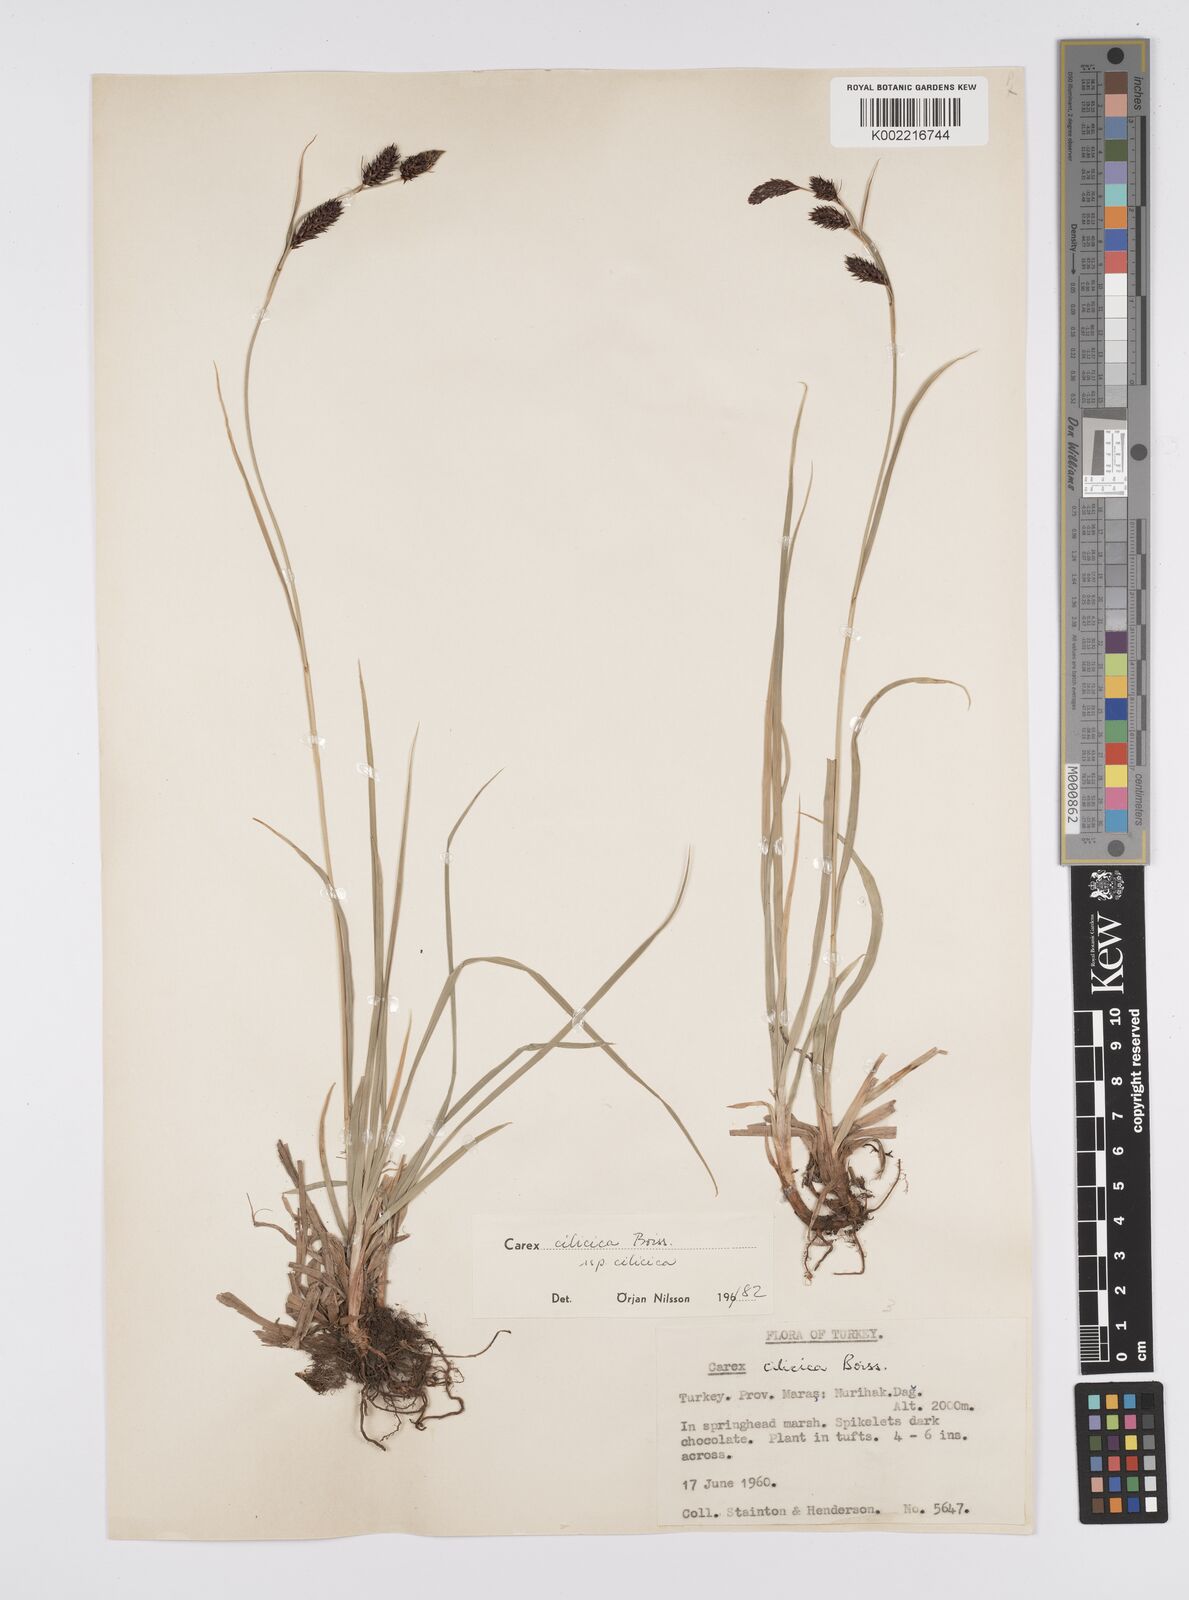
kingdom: Plantae
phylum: Tracheophyta
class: Liliopsida
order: Poales
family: Cyperaceae
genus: Carex
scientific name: Carex cilicica
